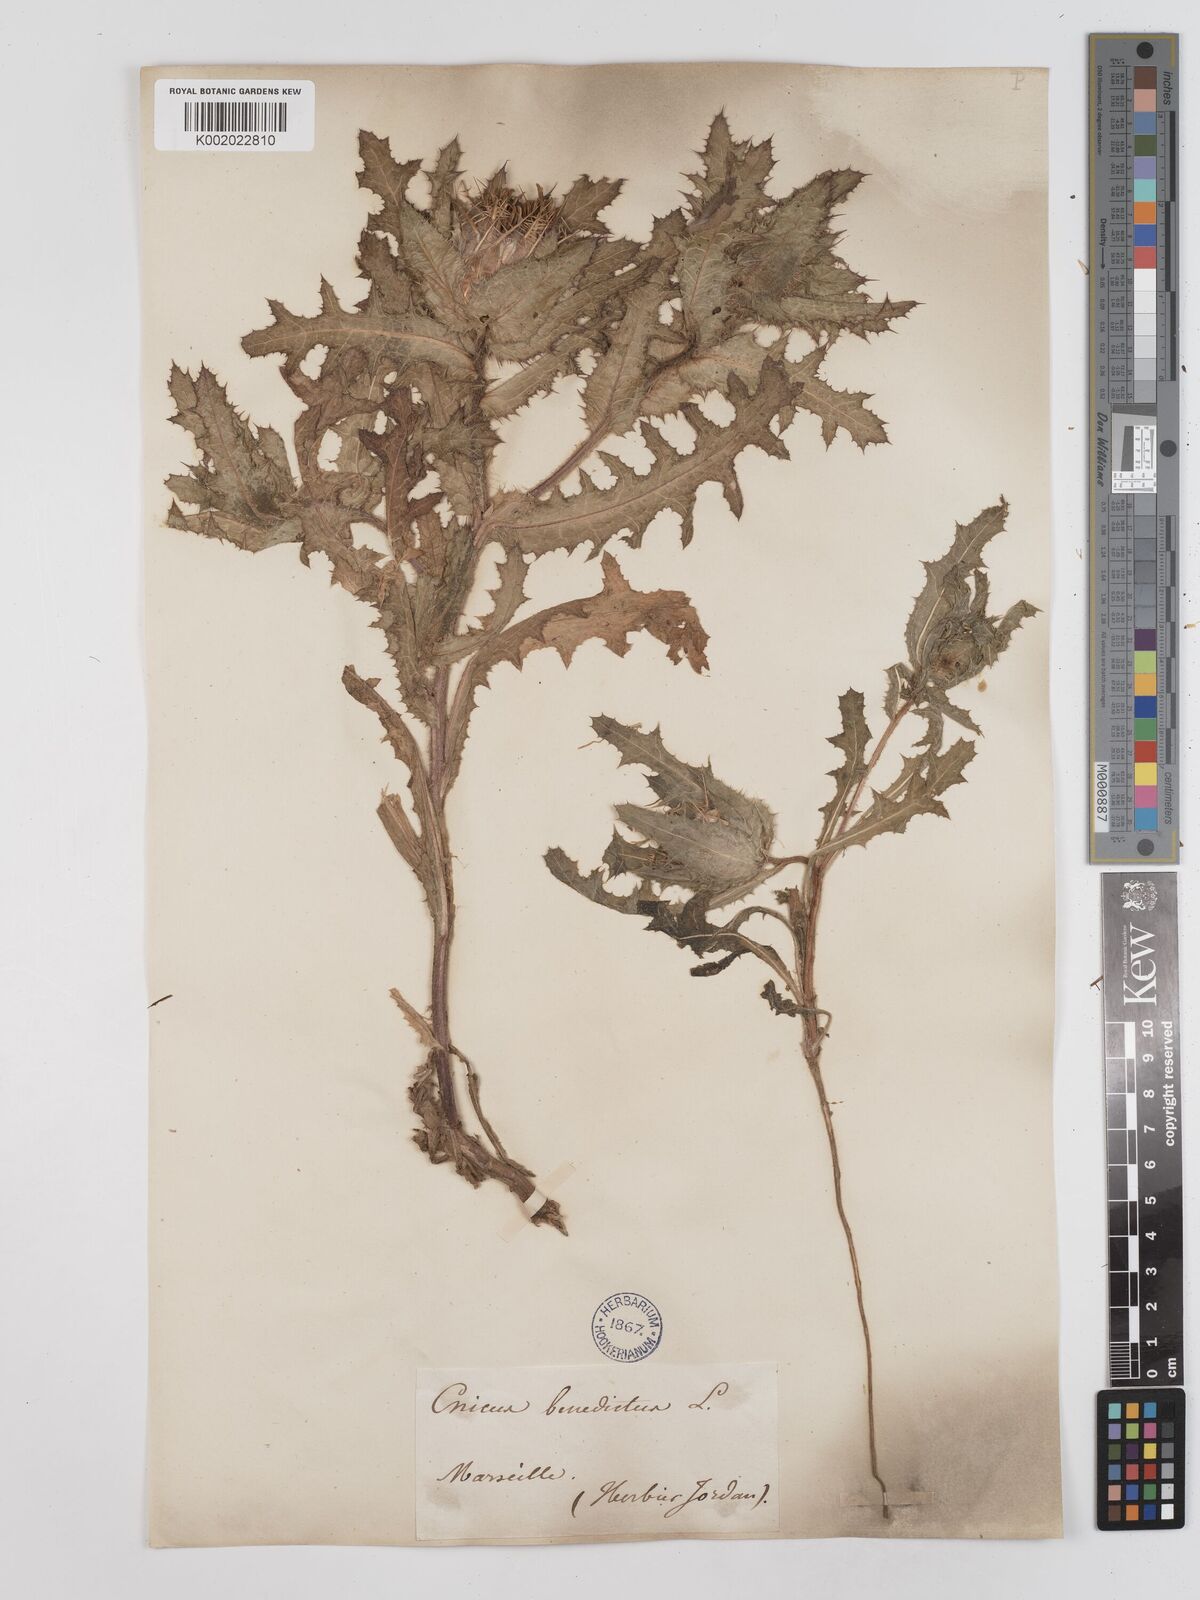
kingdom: Plantae
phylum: Tracheophyta
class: Magnoliopsida
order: Asterales
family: Asteraceae
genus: Centaurea
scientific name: Centaurea benedicta
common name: Blessed thistle
